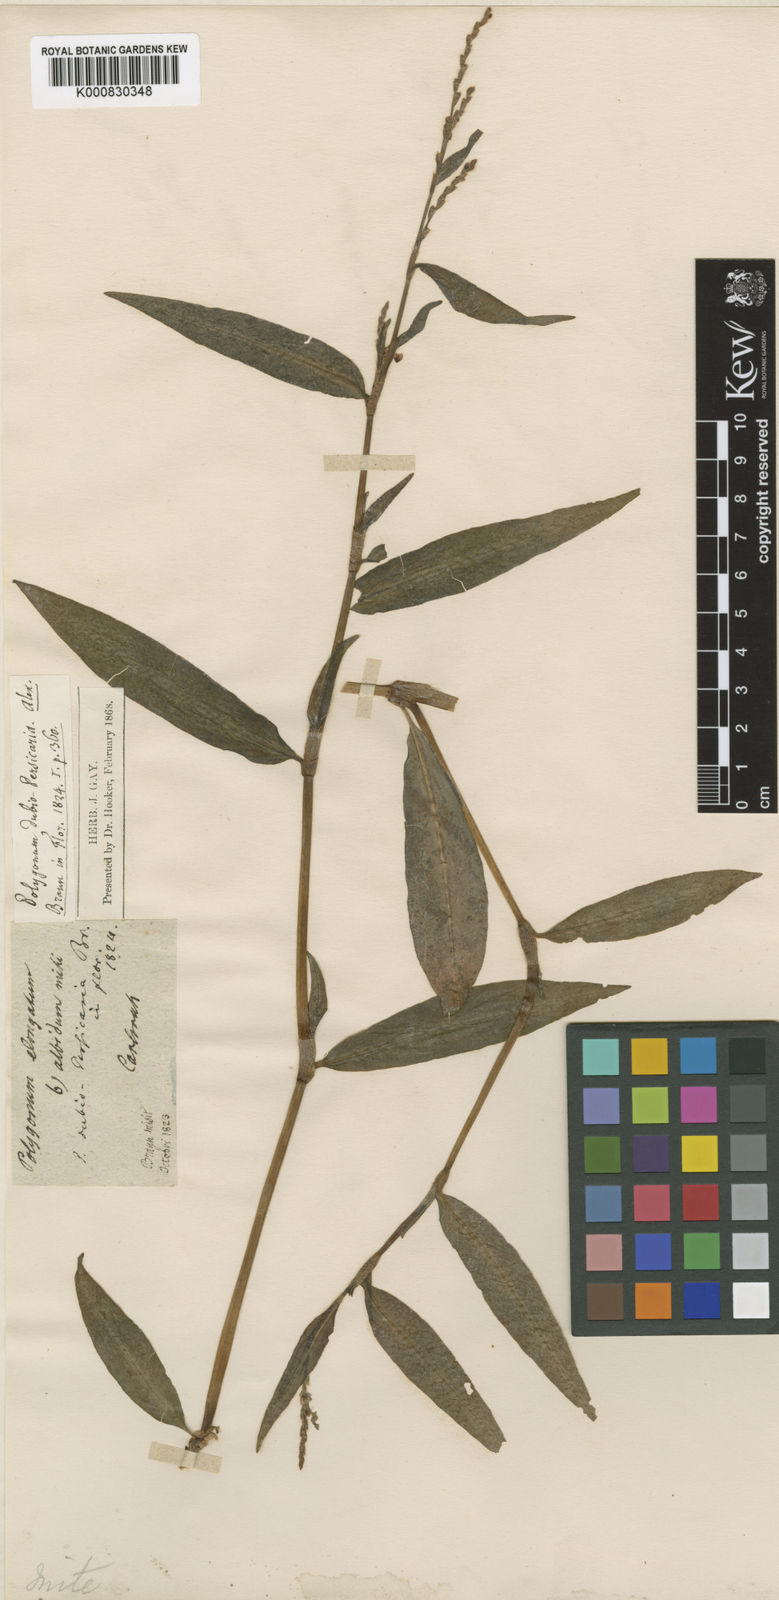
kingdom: Plantae
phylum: Tracheophyta
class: Magnoliopsida
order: Caryophyllales
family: Polygonaceae
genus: Persicaria
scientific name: Persicaria mitis
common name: Tasteless water-pepper
